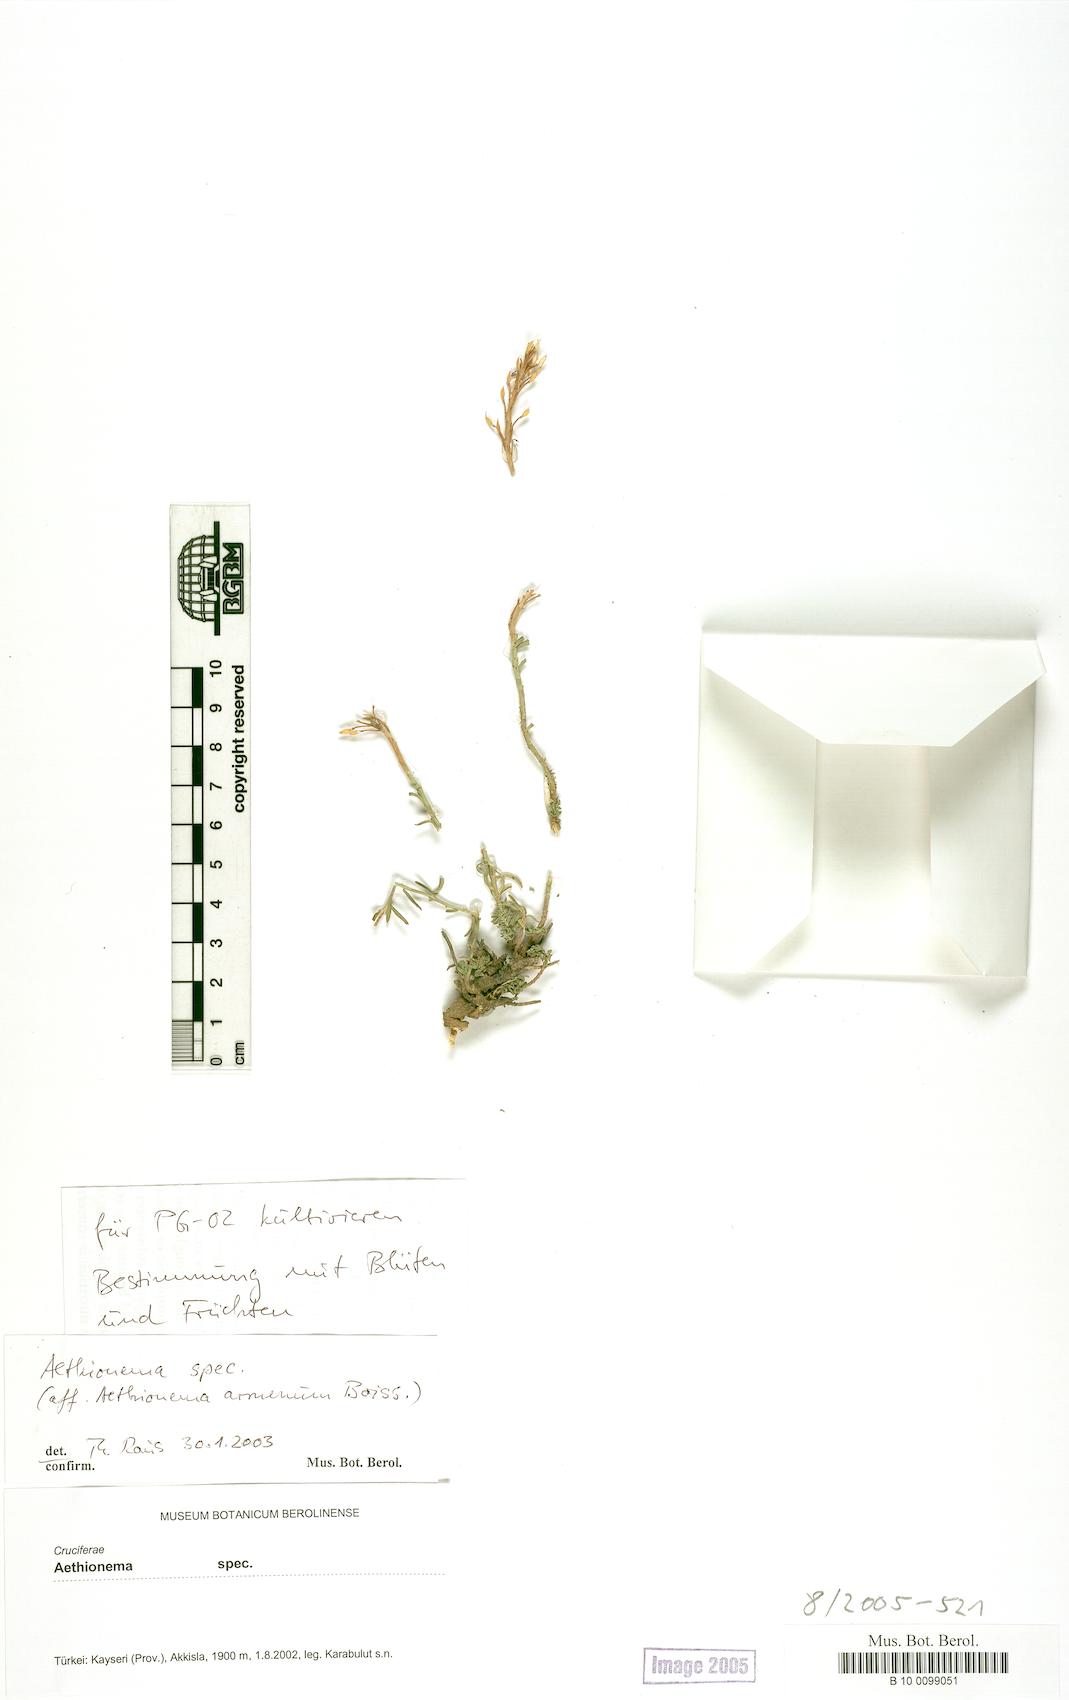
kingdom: Plantae
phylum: Tracheophyta
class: Magnoliopsida
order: Brassicales
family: Brassicaceae
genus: Aethionema
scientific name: Aethionema
